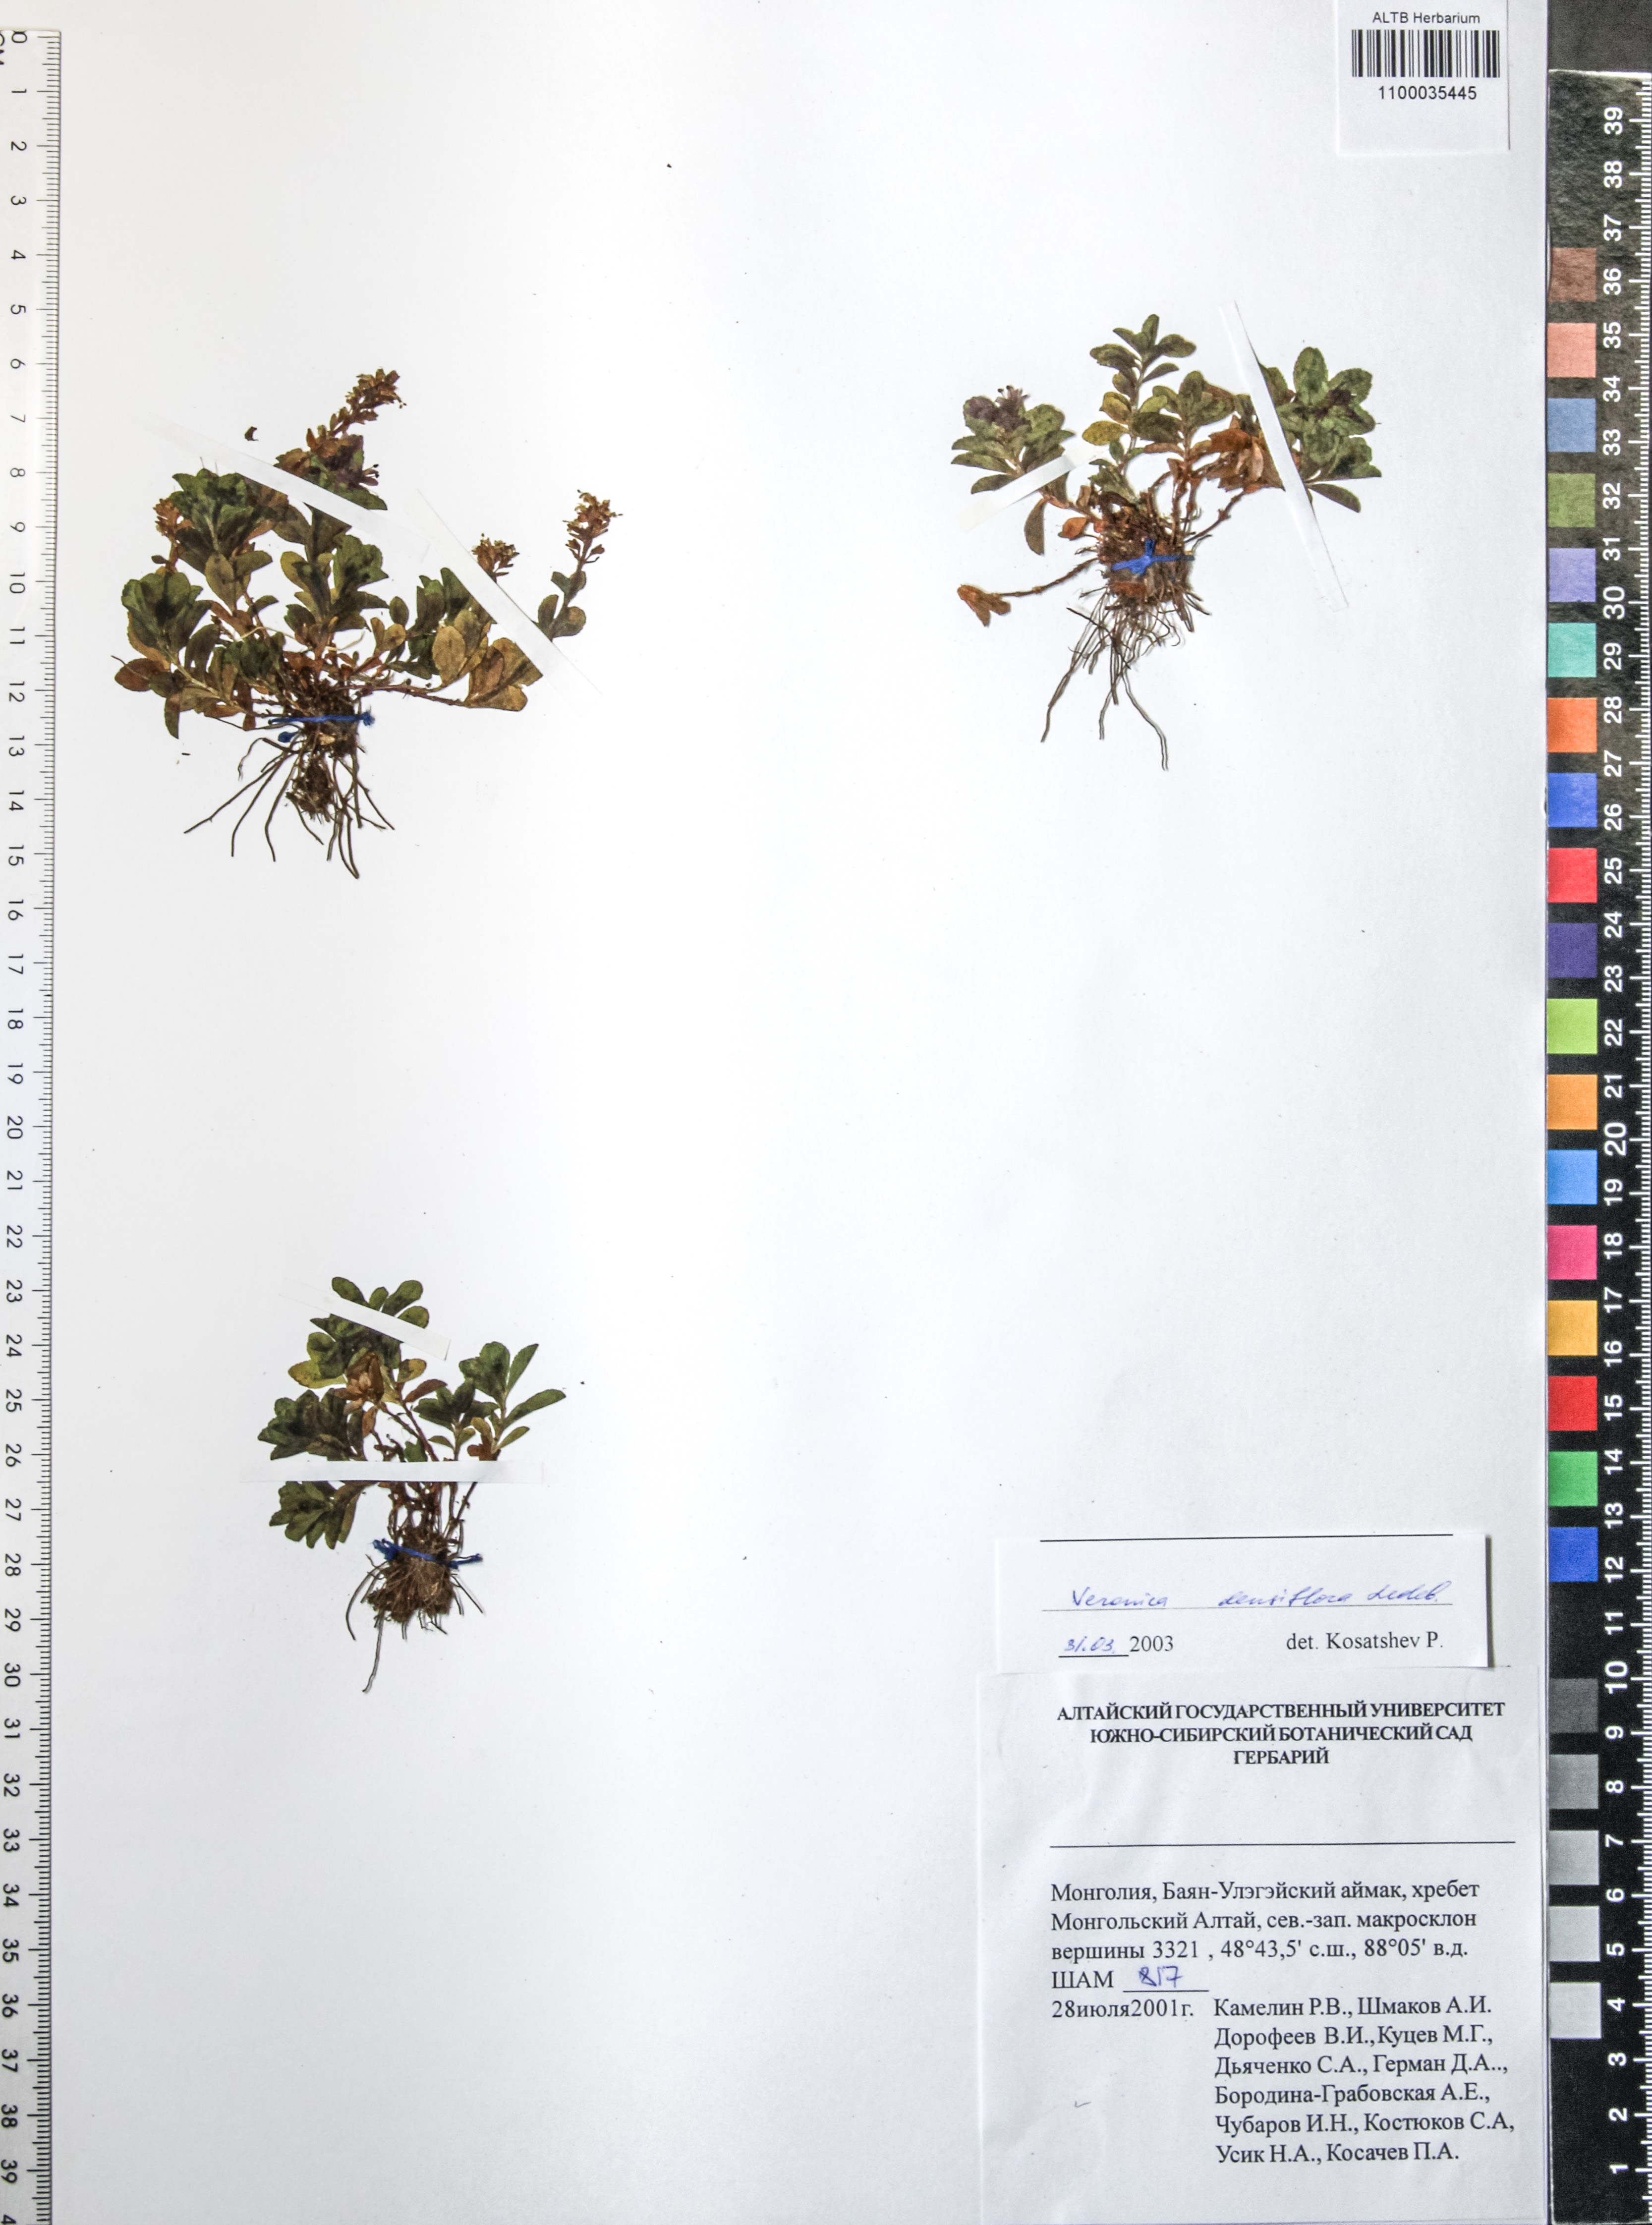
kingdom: Plantae
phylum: Tracheophyta
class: Magnoliopsida
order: Lamiales
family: Plantaginaceae
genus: Veronica
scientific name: Veronica densiflora
